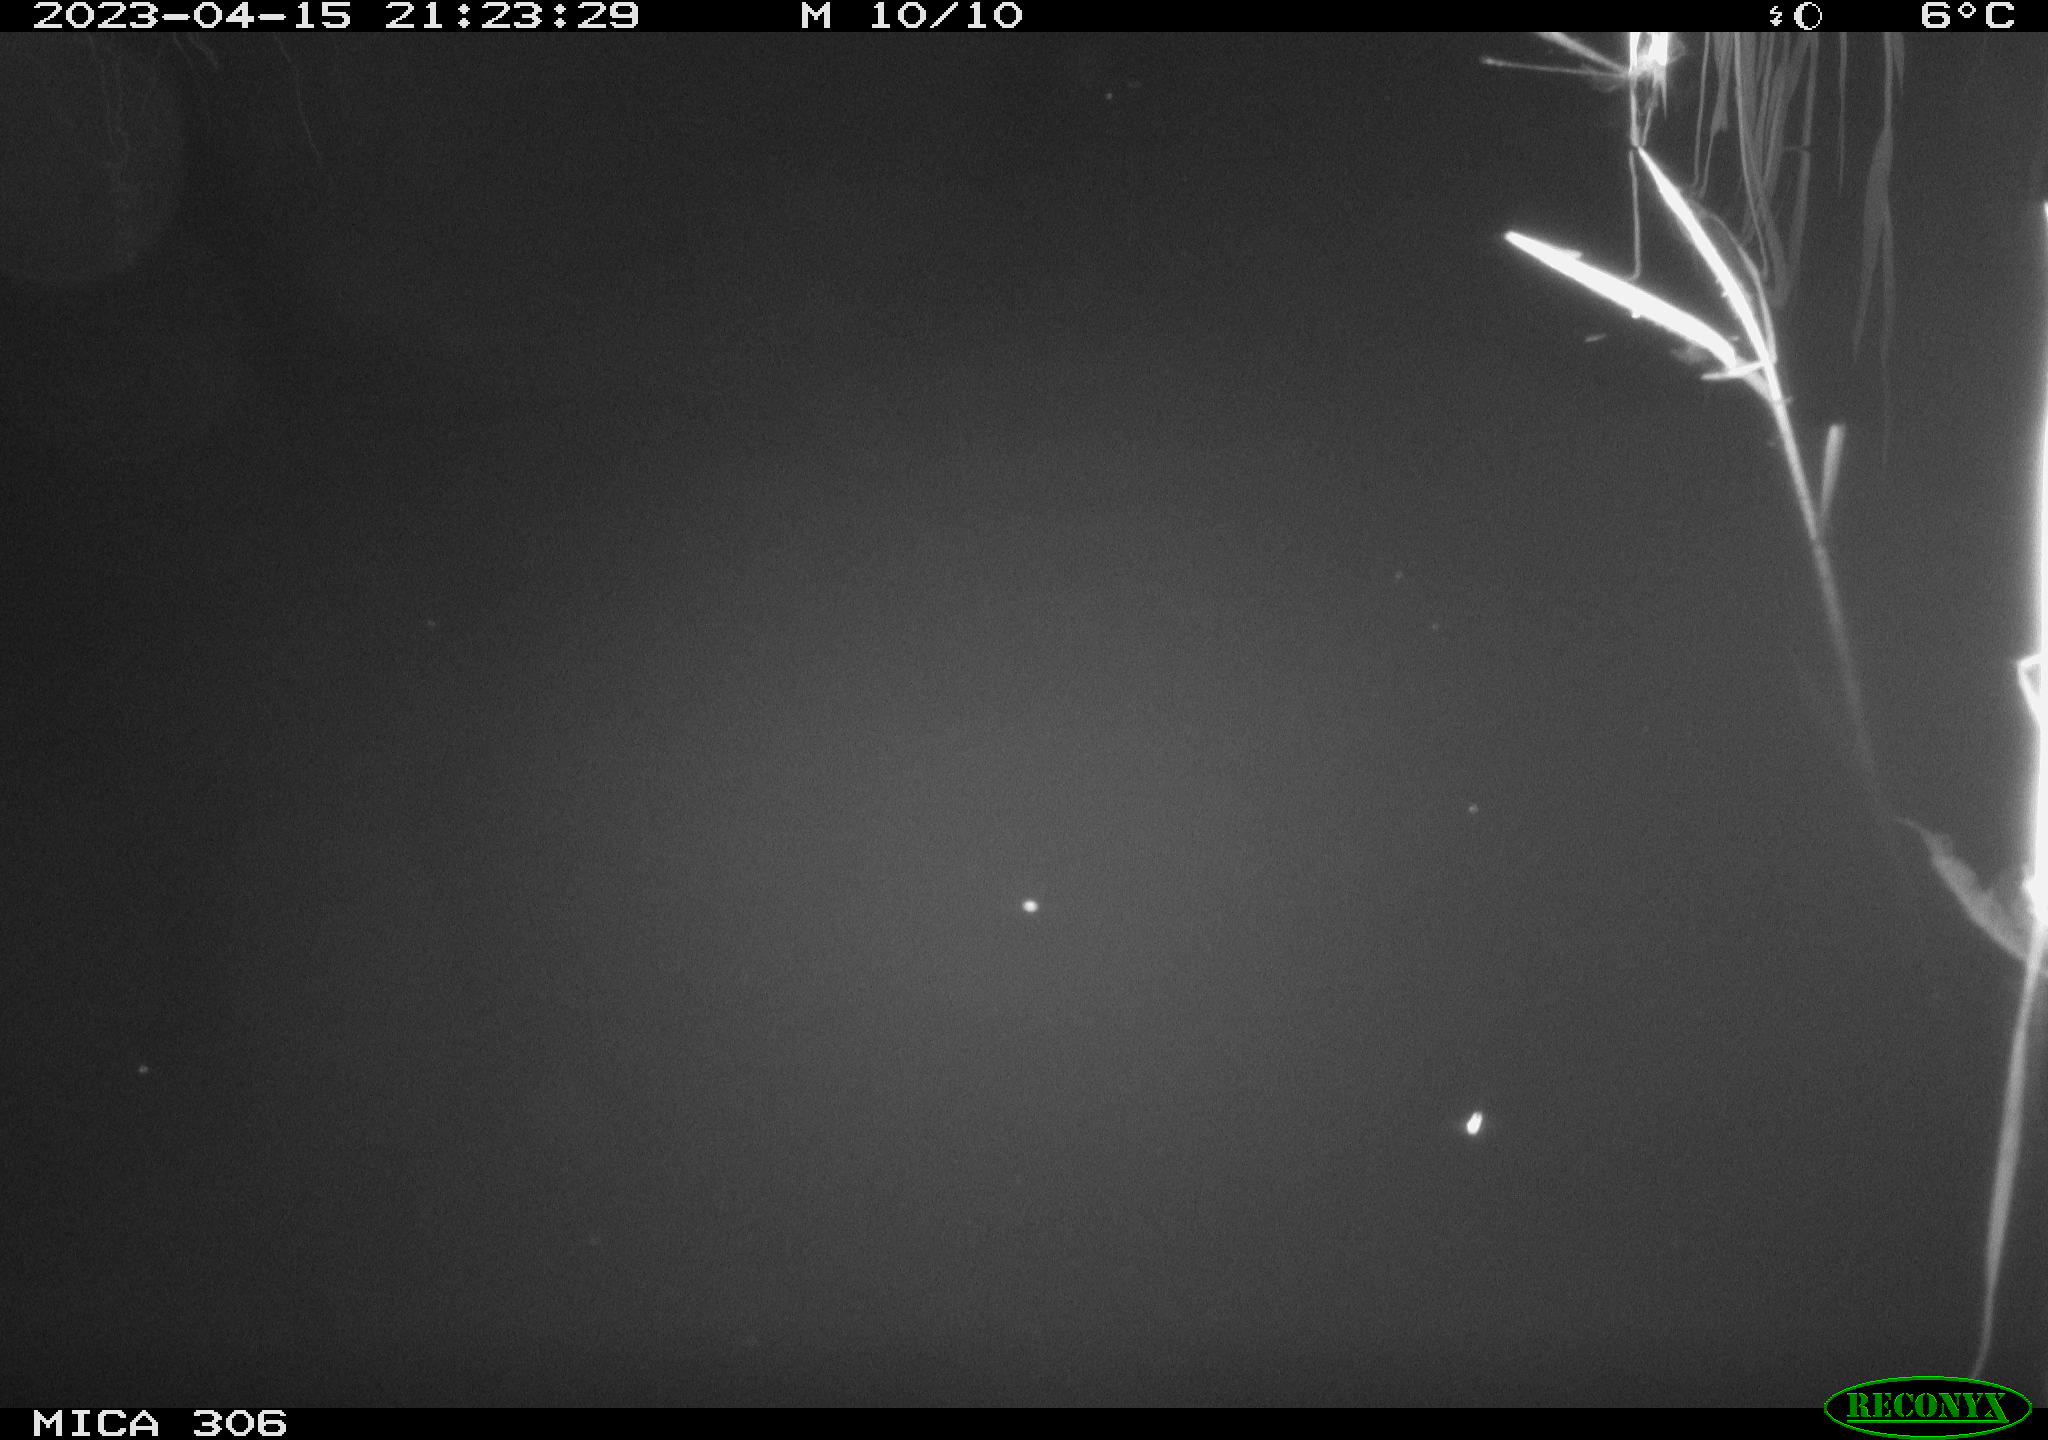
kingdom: Animalia
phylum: Chordata
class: Aves
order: Anseriformes
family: Anatidae
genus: Anas
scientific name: Anas
